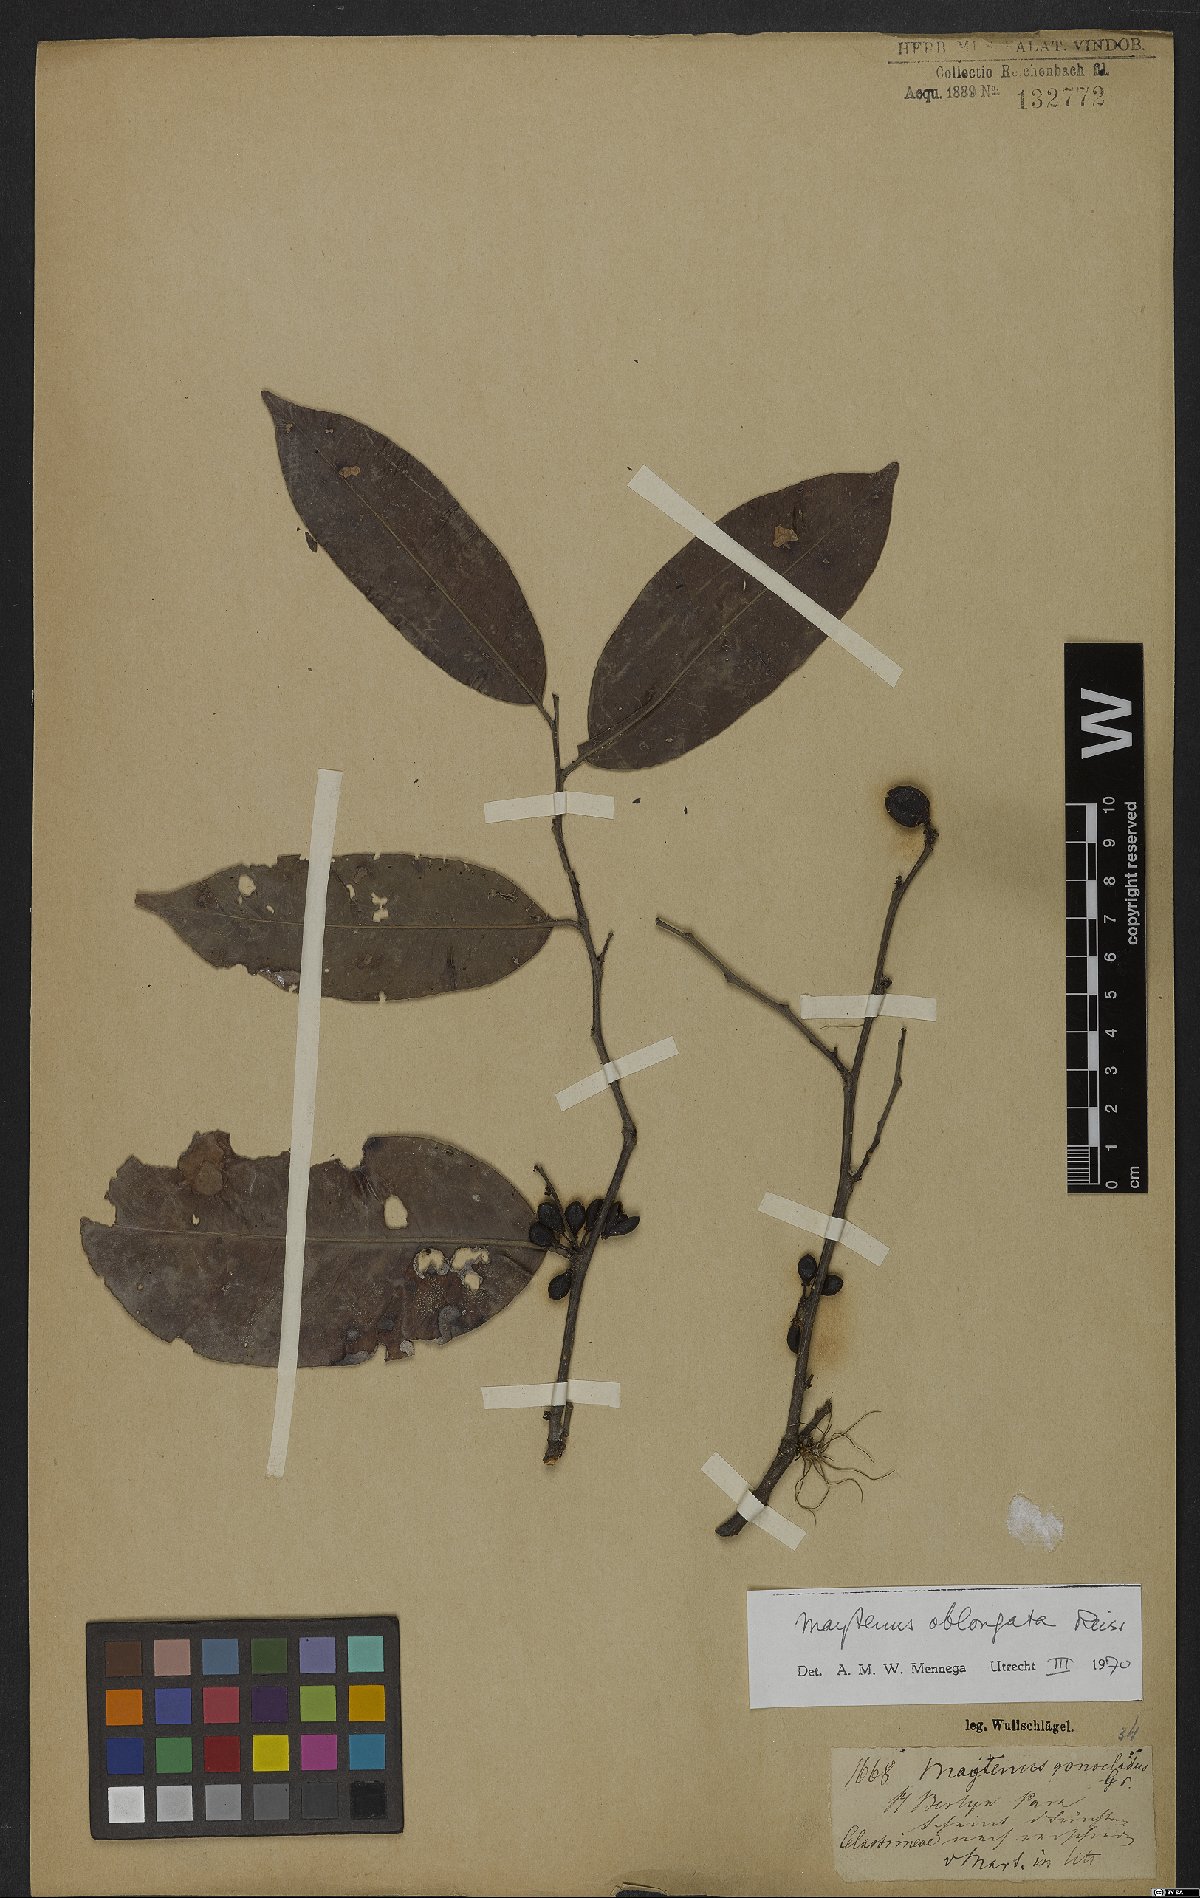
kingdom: Plantae
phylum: Tracheophyta
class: Magnoliopsida
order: Celastrales
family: Celastraceae
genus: Monteverdia
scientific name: Monteverdia oblongata
